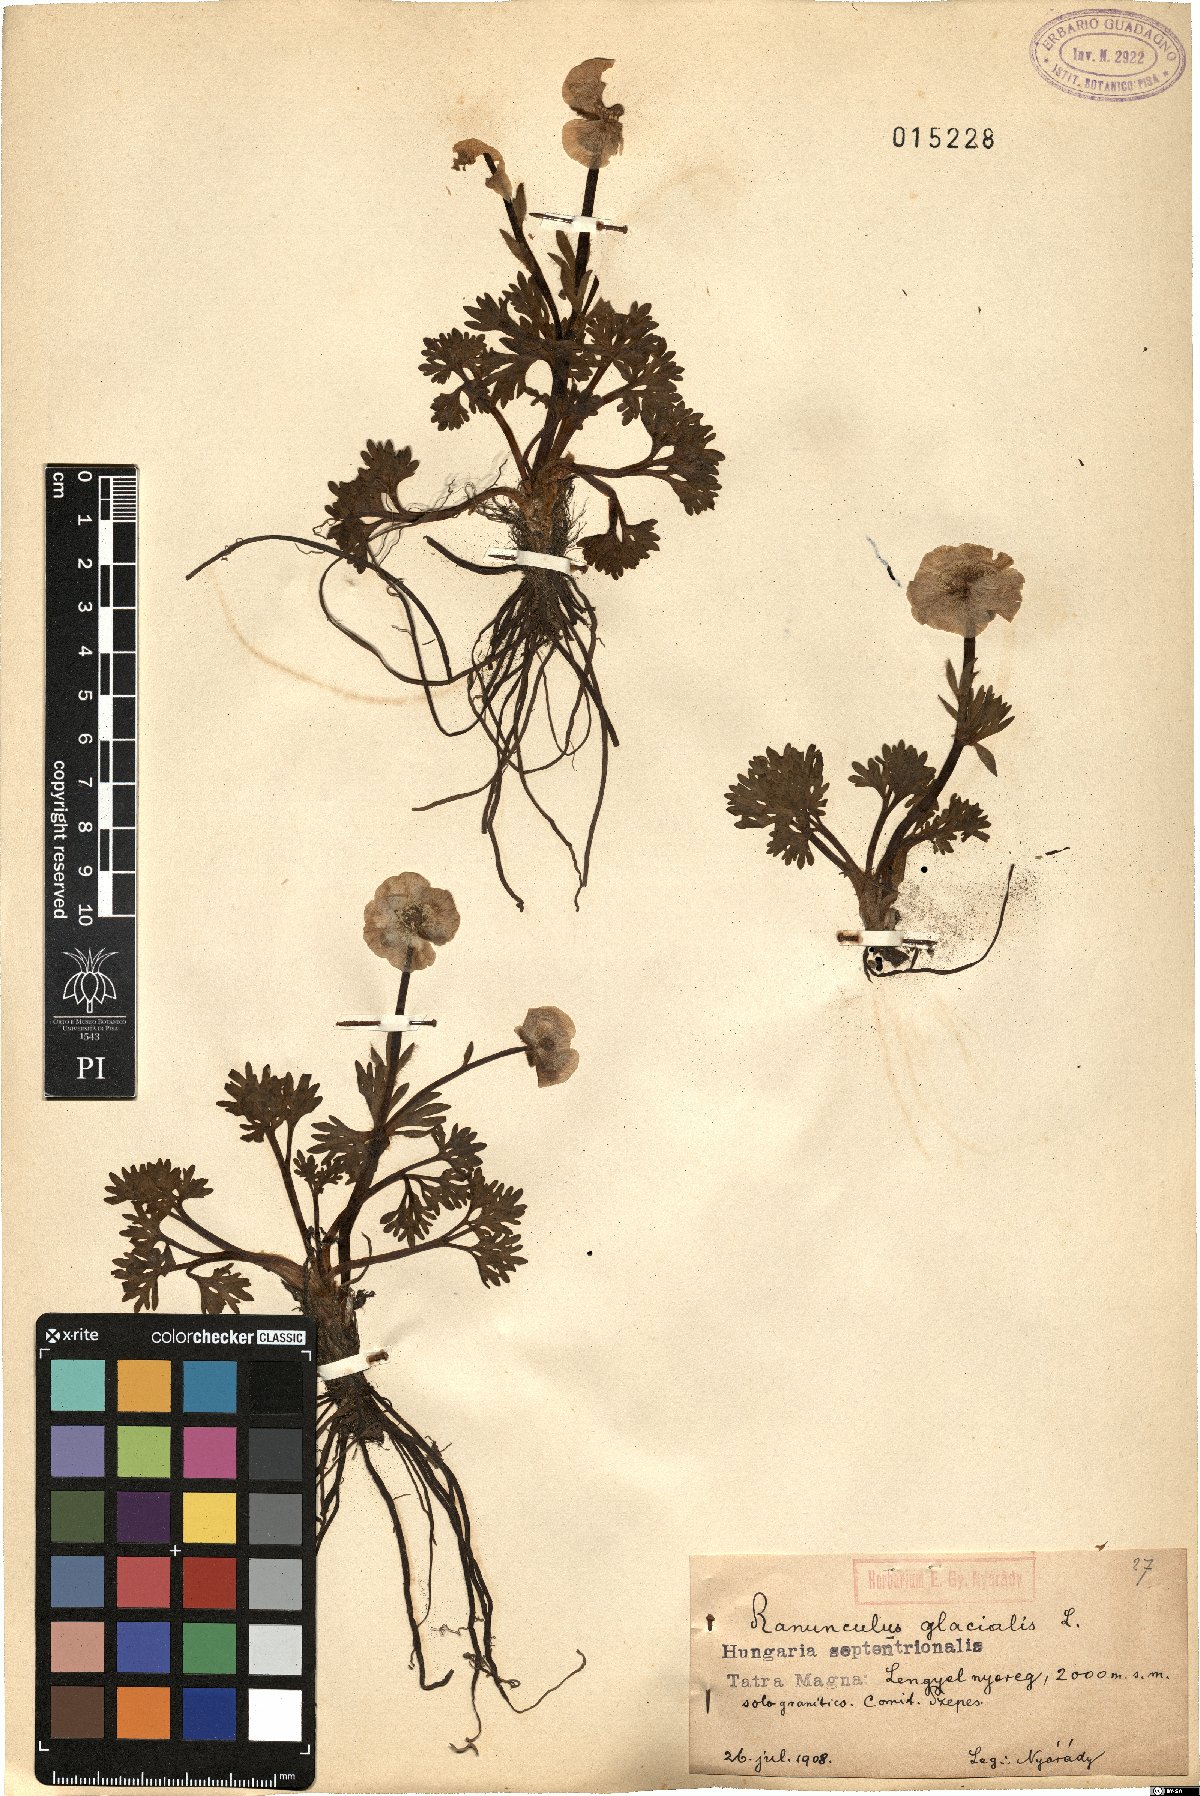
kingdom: Plantae
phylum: Tracheophyta
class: Magnoliopsida
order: Ranunculales
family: Ranunculaceae
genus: Ranunculus
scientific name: Ranunculus glacialis
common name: Glacier buttercup
